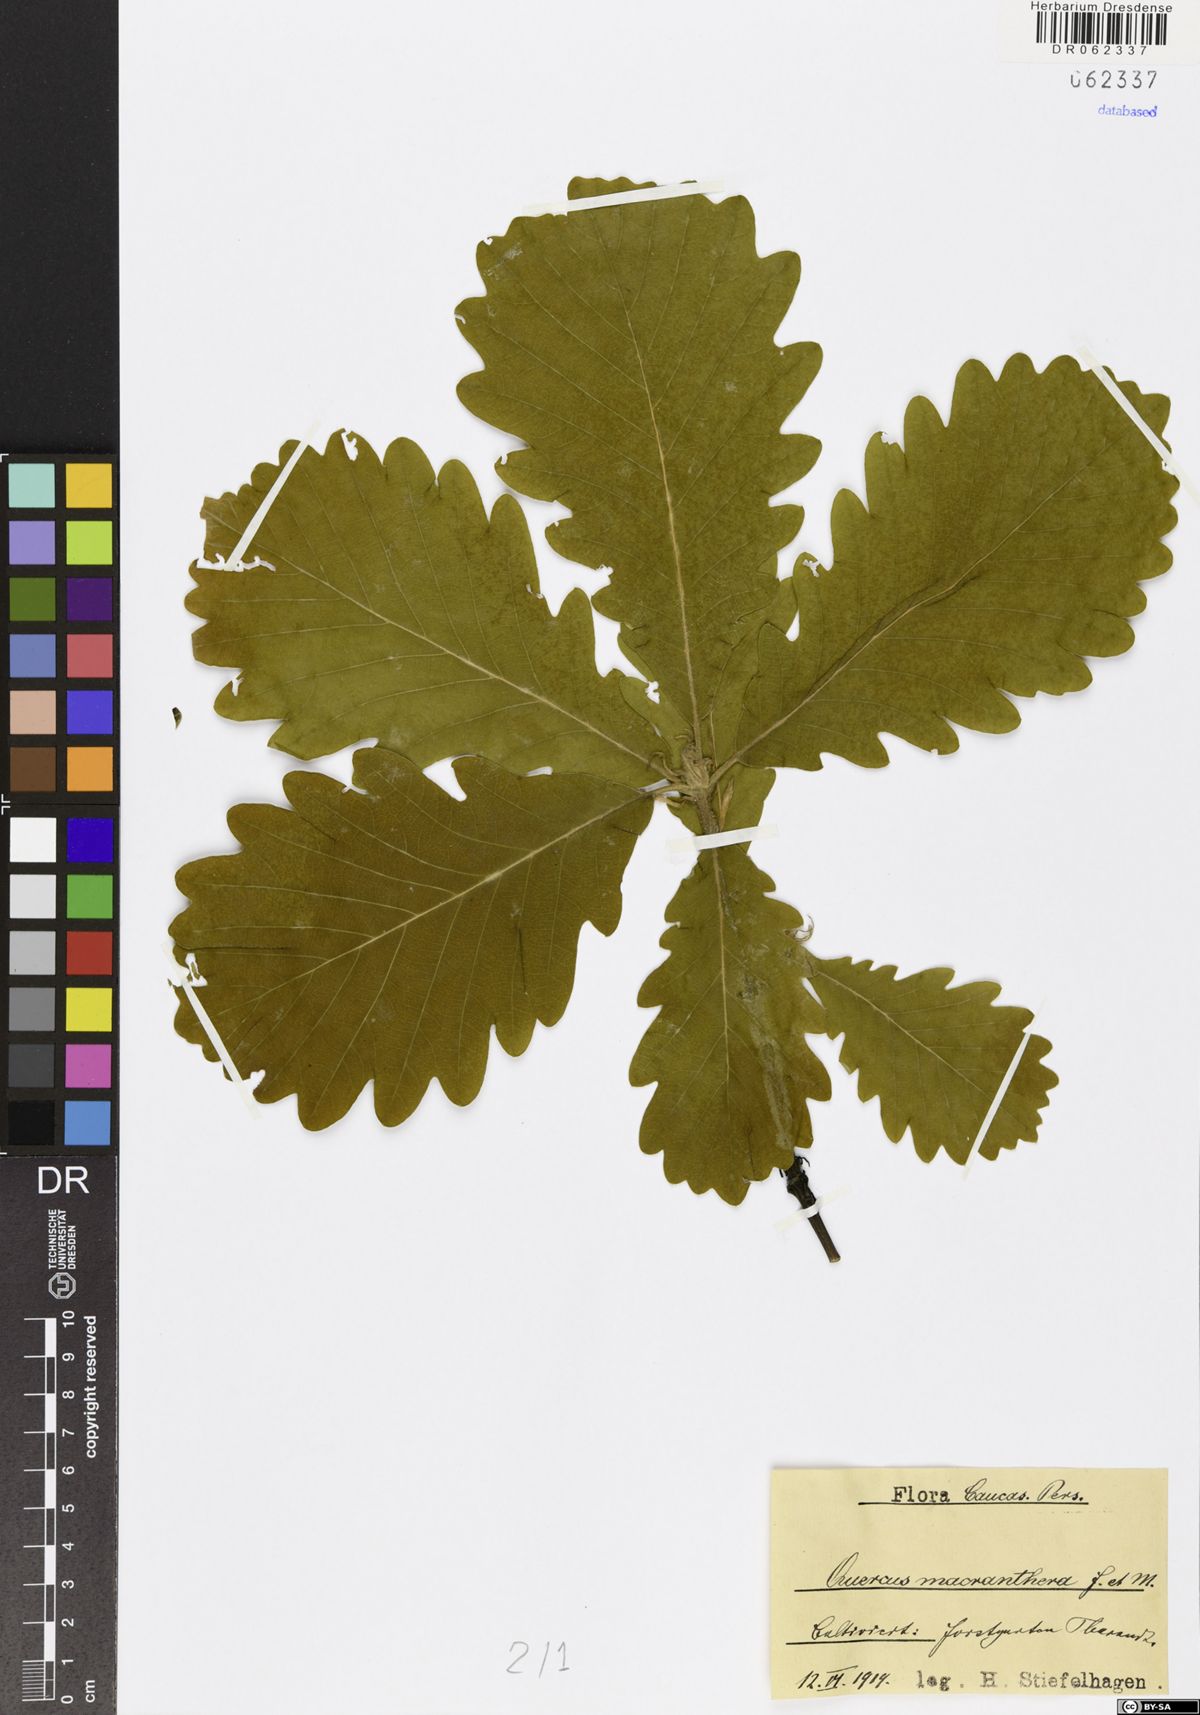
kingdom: Plantae
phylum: Tracheophyta
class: Magnoliopsida
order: Fagales
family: Fagaceae
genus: Quercus
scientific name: Quercus macranthera
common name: Caucasian oak
